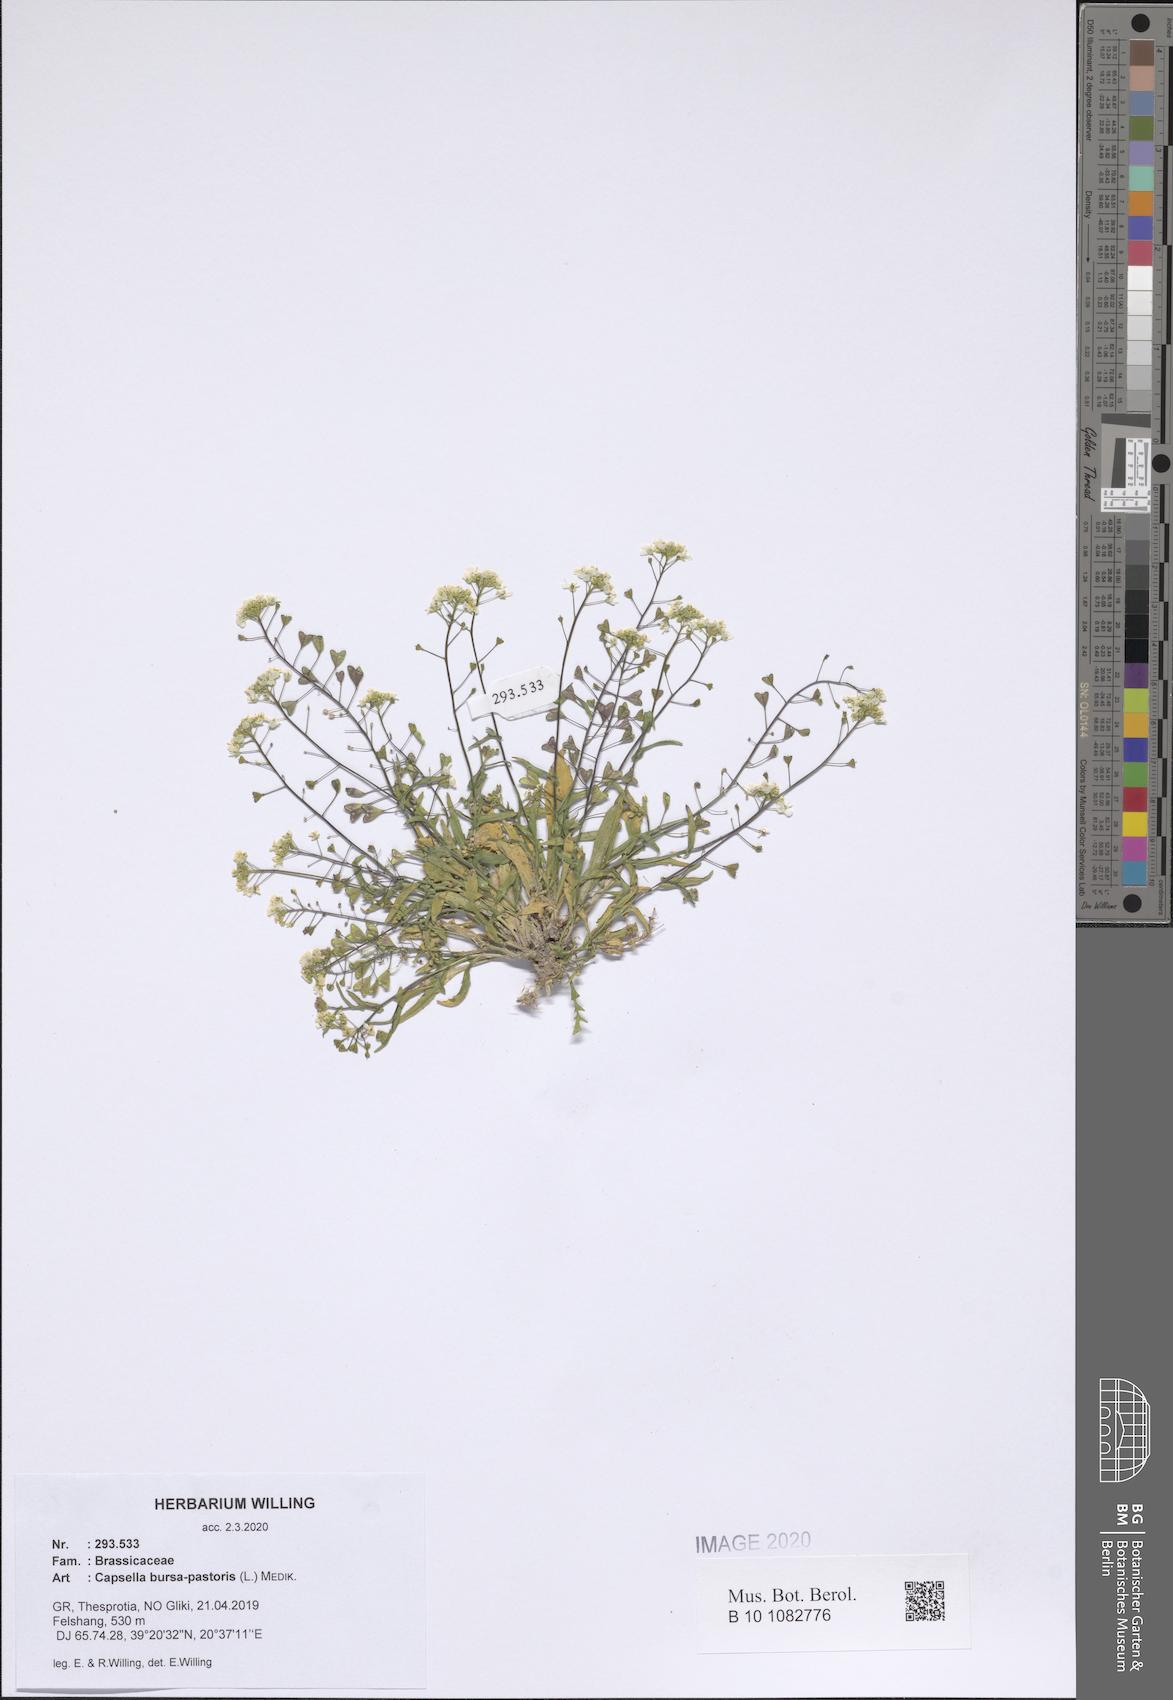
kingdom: Plantae
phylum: Tracheophyta
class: Magnoliopsida
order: Brassicales
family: Brassicaceae
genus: Capsella
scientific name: Capsella bursa-pastoris
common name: Shepherd's purse
